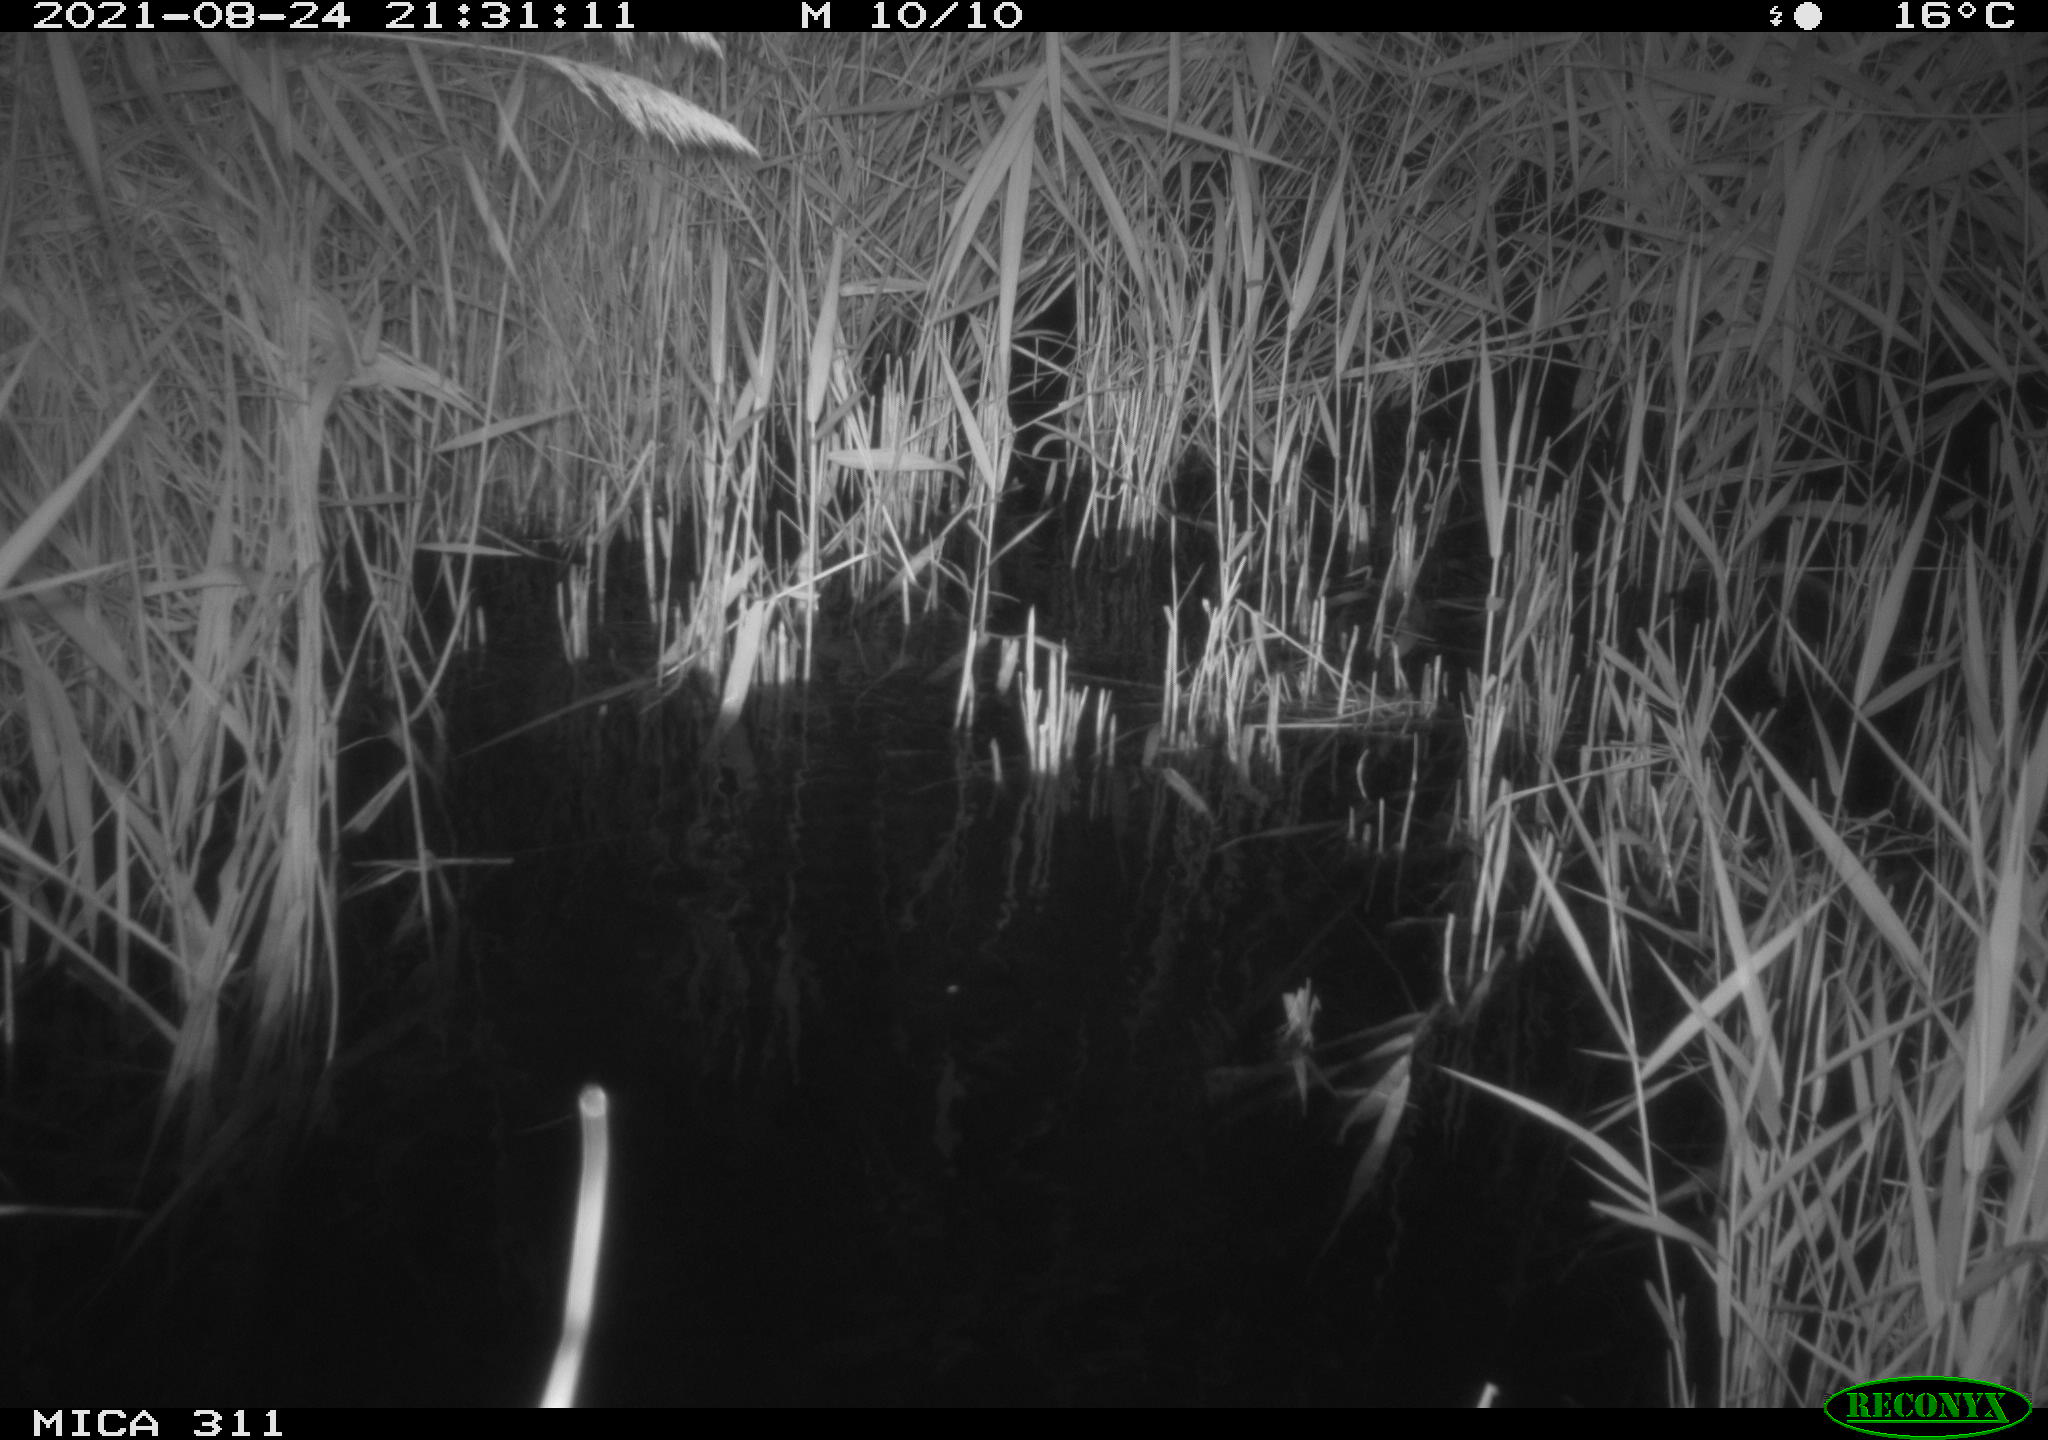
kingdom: Animalia
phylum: Chordata
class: Mammalia
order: Rodentia
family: Muridae
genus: Rattus
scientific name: Rattus norvegicus
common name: Brown rat
